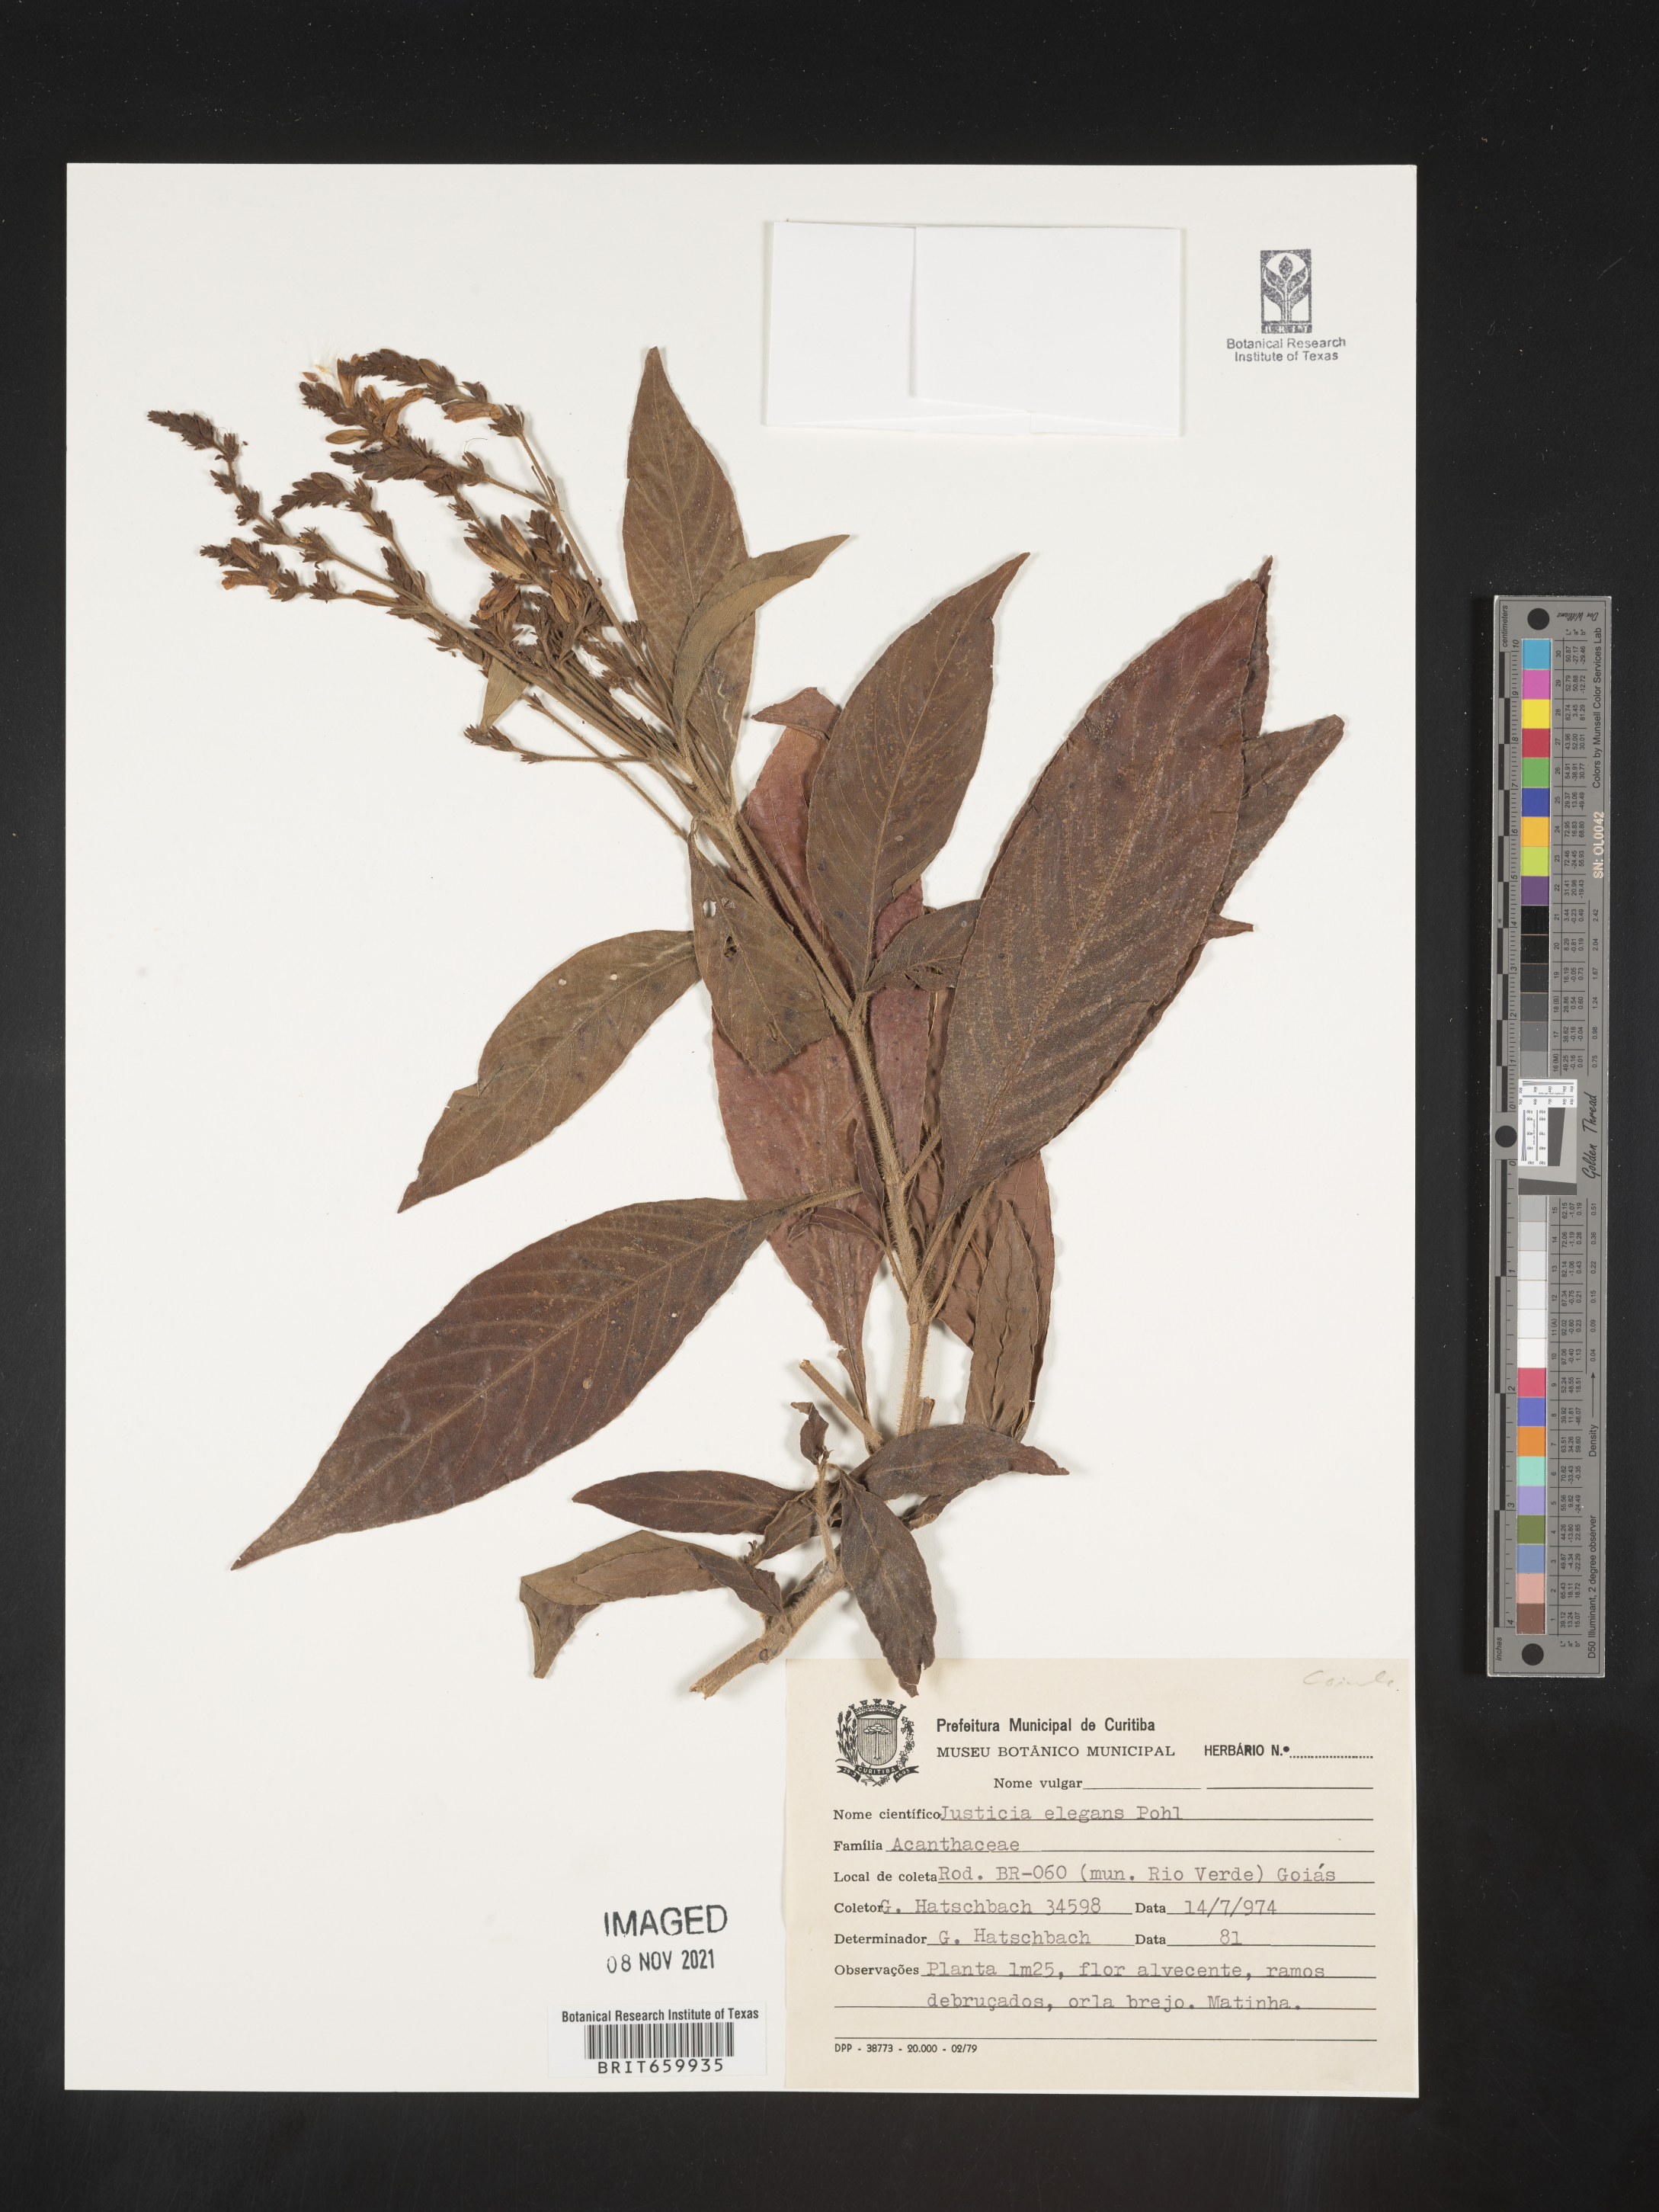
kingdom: Plantae
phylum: Tracheophyta
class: Magnoliopsida
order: Lamiales
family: Acanthaceae
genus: Lankesteria
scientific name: Lankesteria elegans
